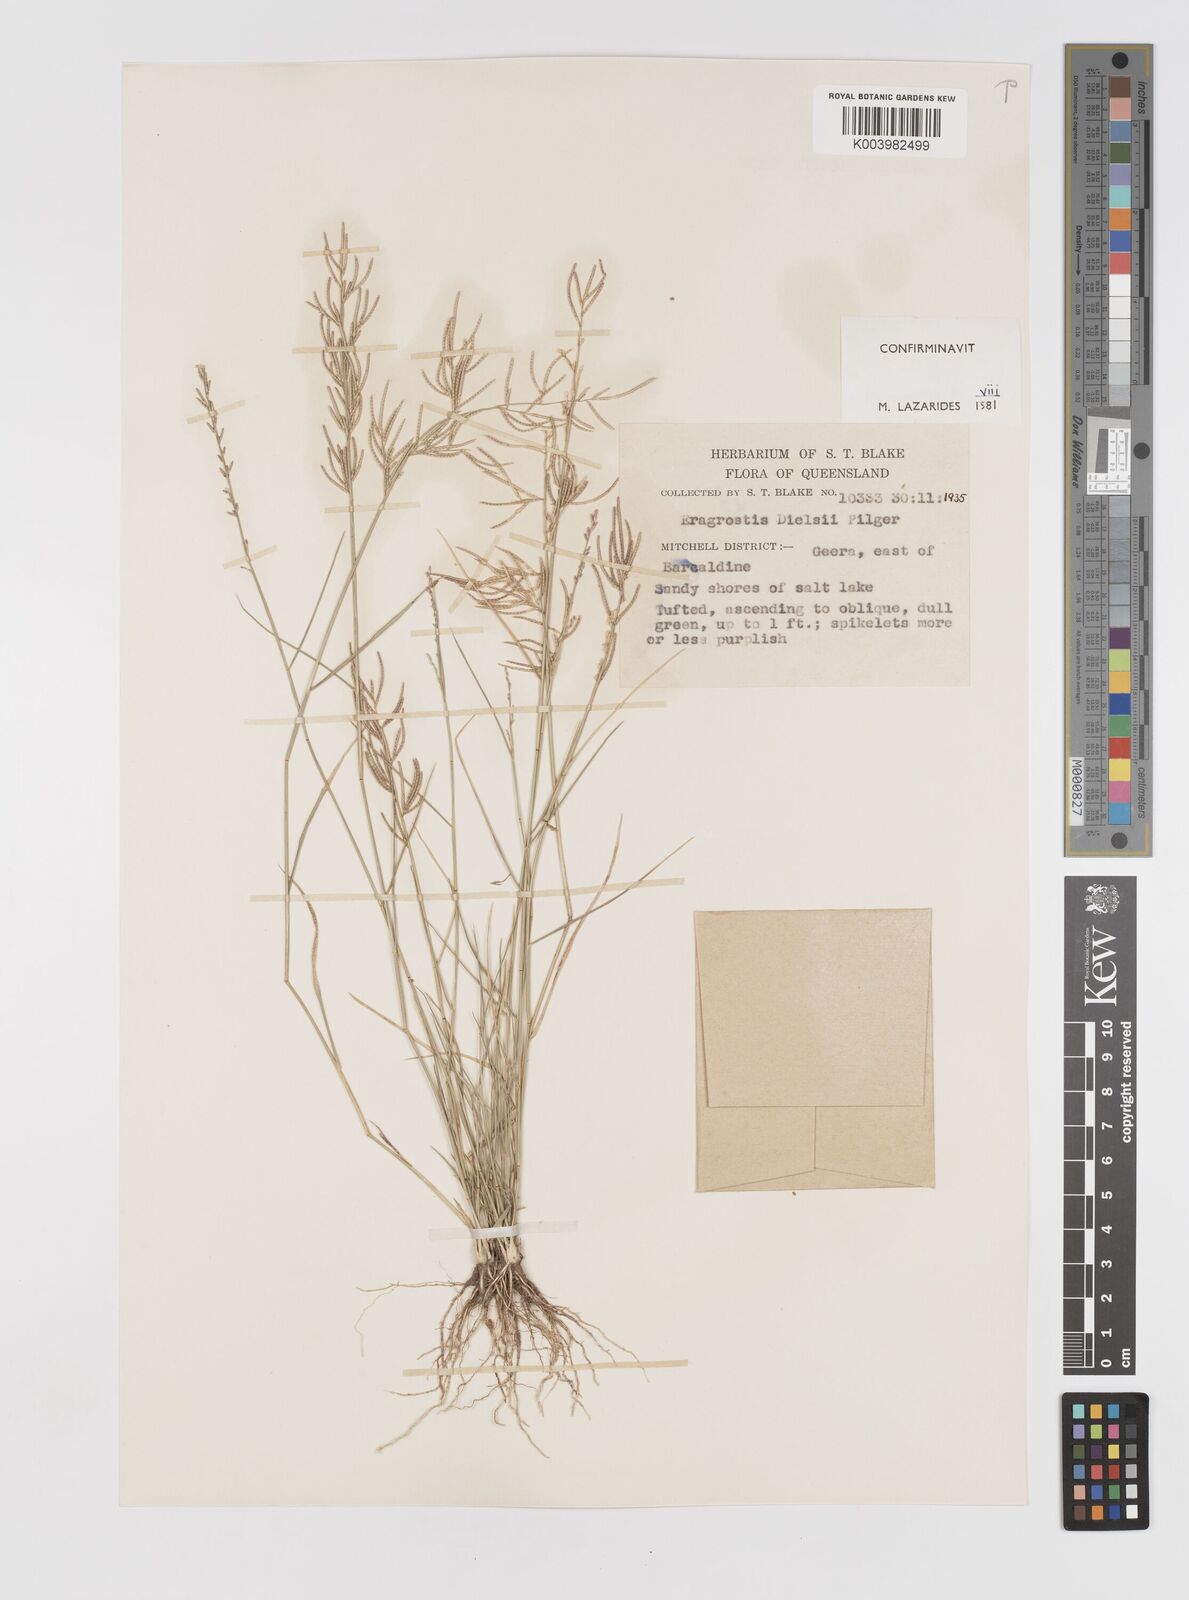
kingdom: Plantae
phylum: Tracheophyta
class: Liliopsida
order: Poales
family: Poaceae
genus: Eragrostis
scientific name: Eragrostis dielsii
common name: Lovegrass
